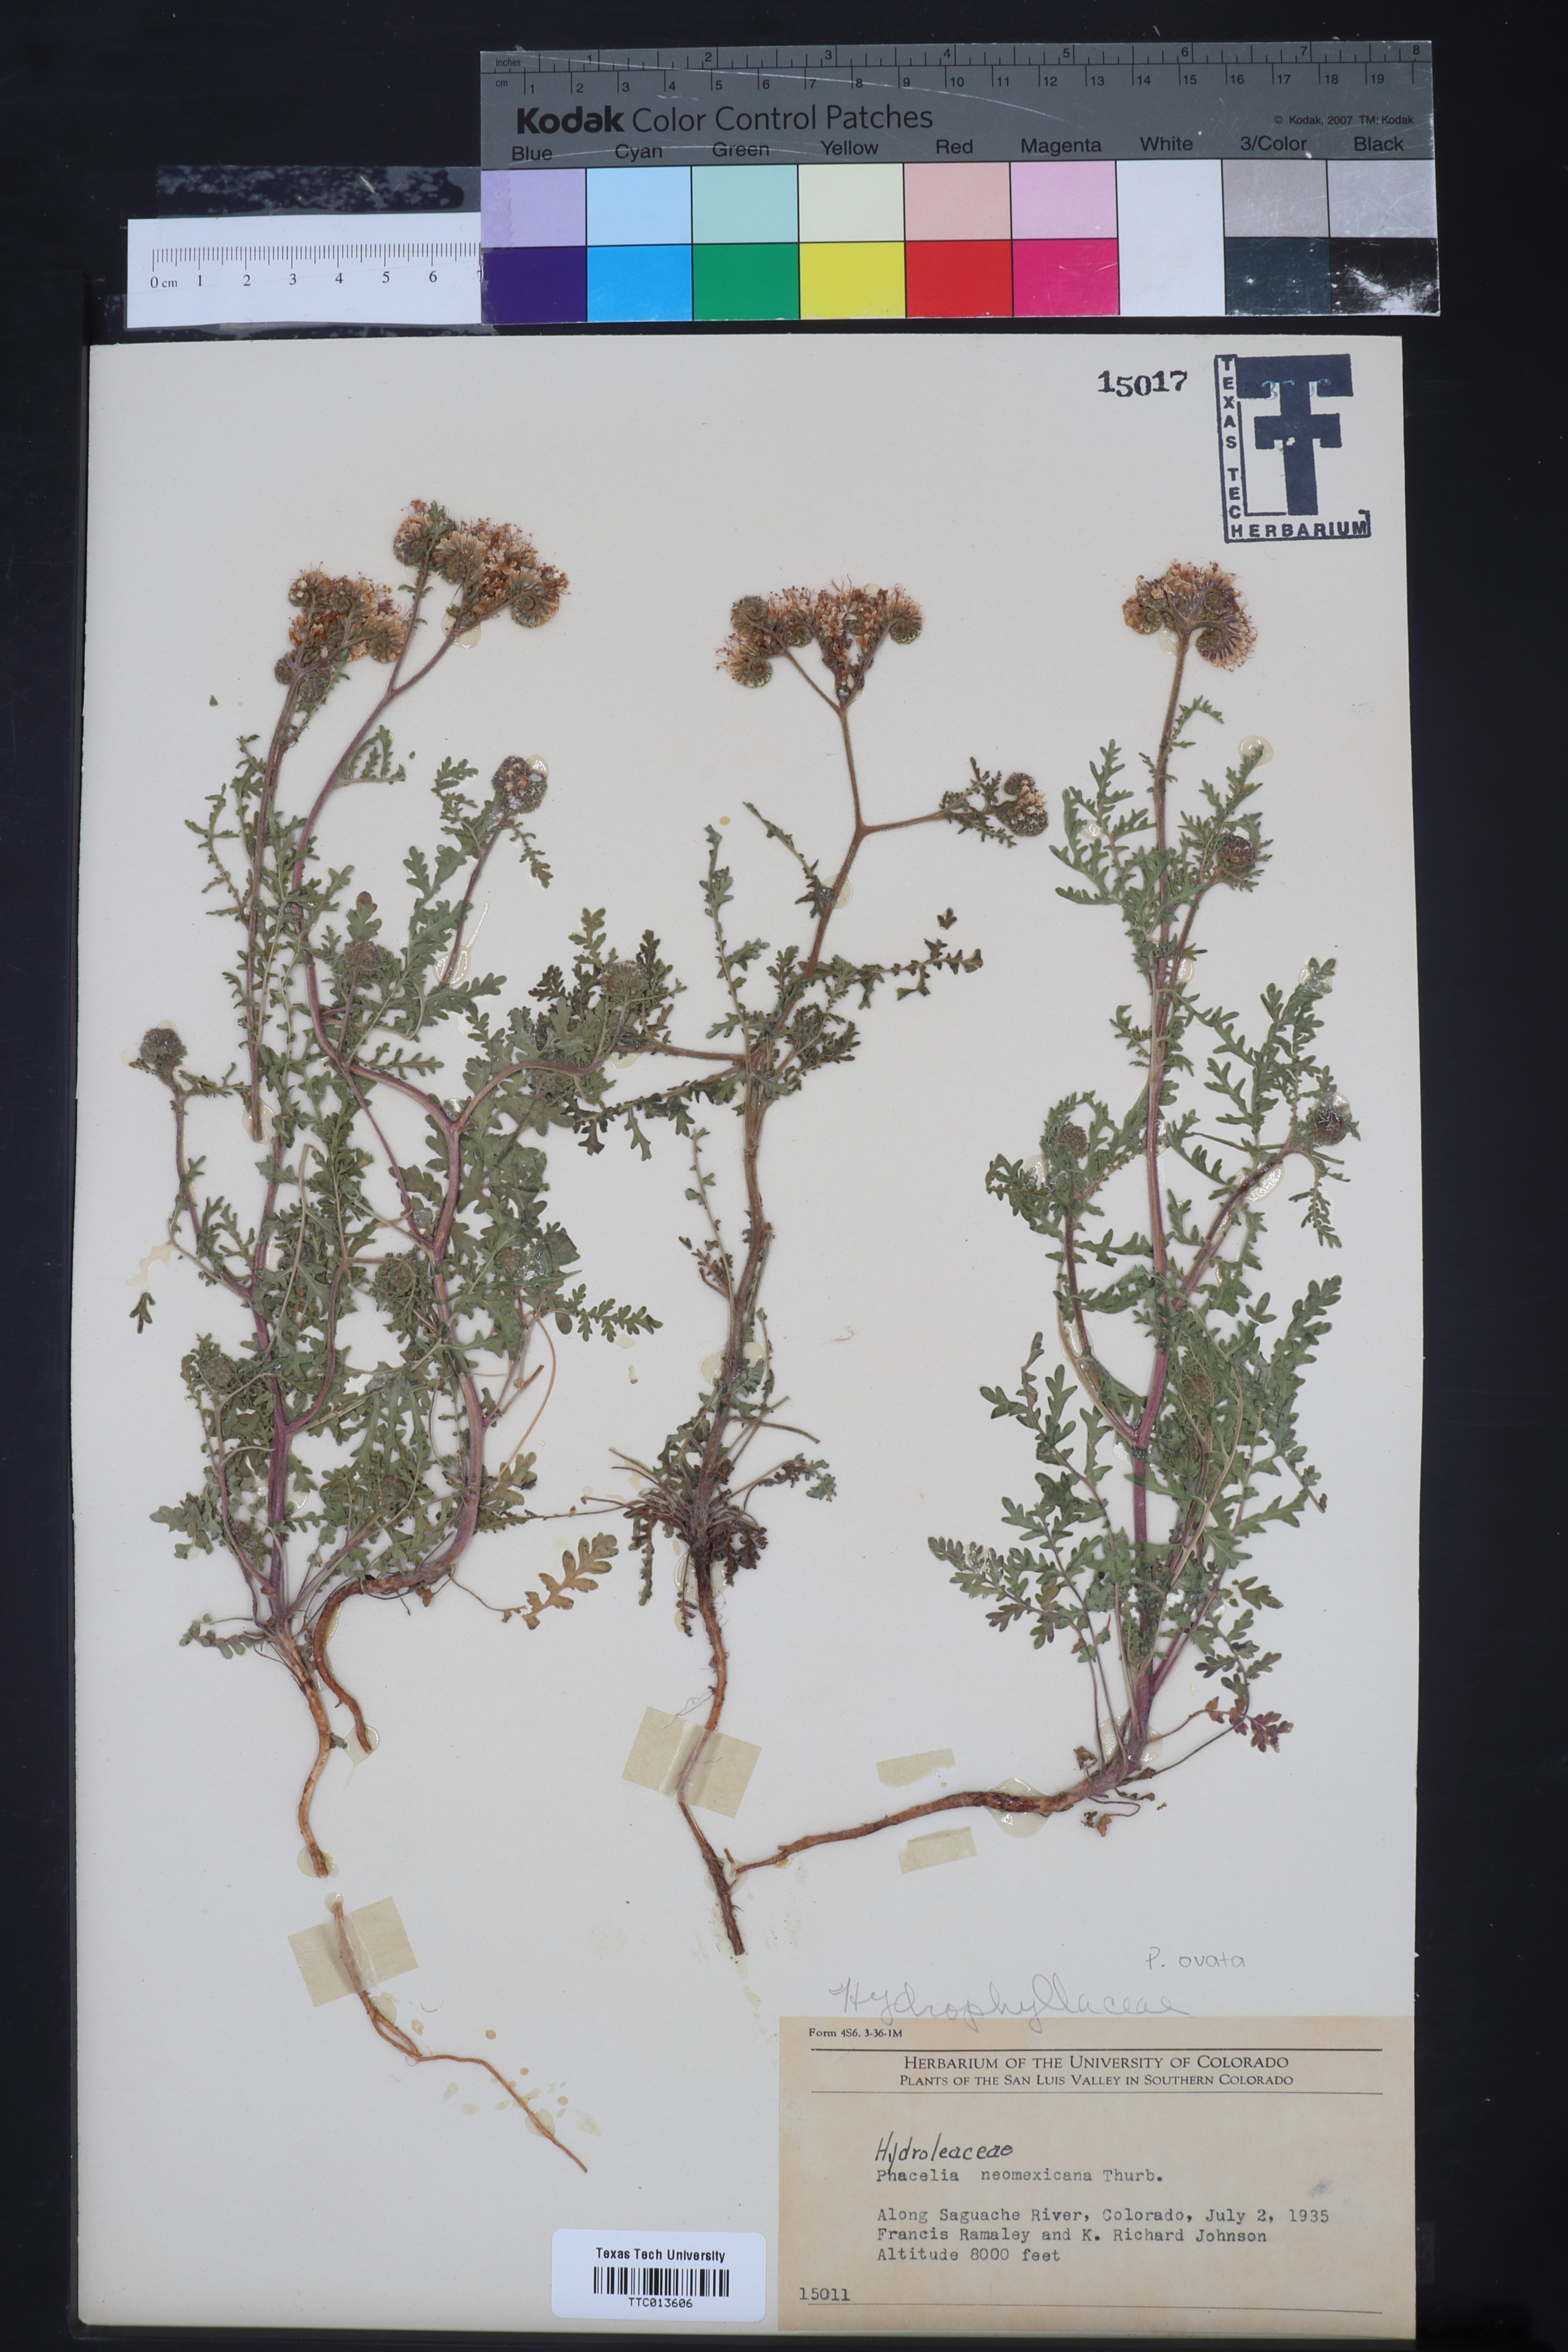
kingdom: Plantae
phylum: Tracheophyta
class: Magnoliopsida
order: Boraginales
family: Hydrophyllaceae
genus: Phacelia
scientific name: Phacelia neomexicana
